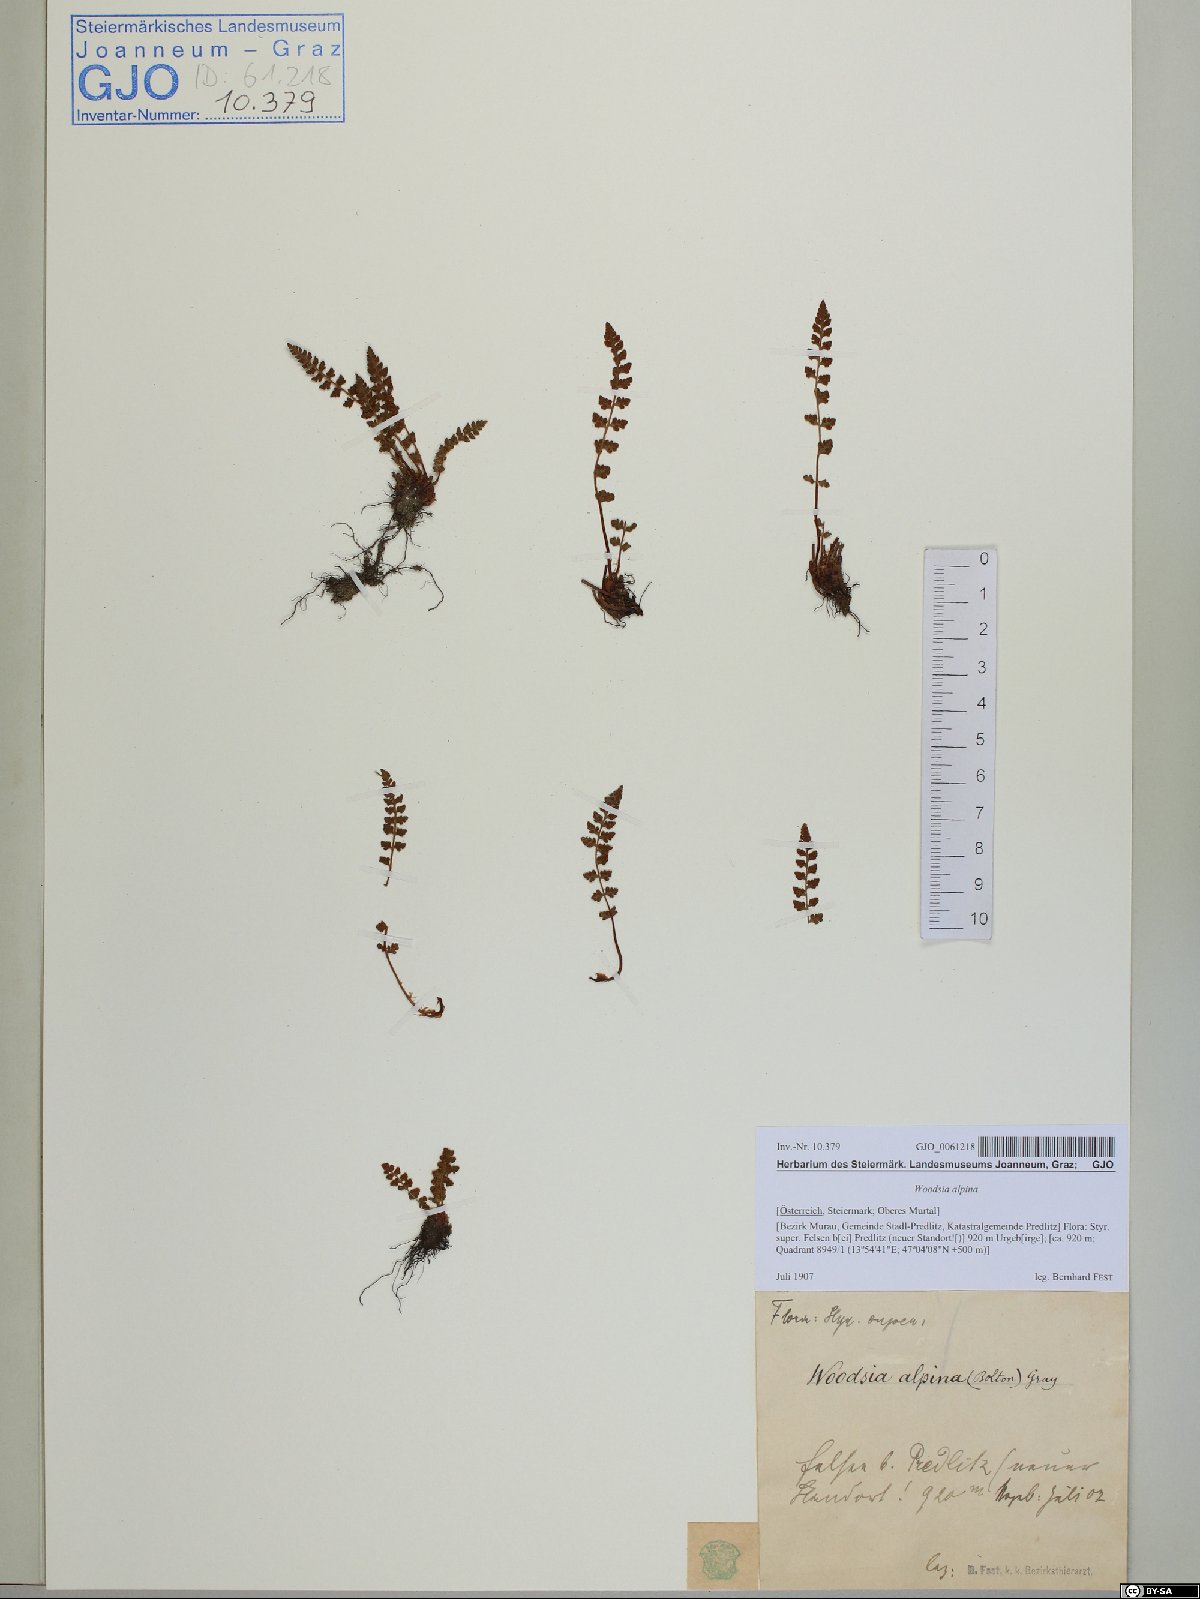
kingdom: Plantae
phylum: Tracheophyta
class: Polypodiopsida
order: Polypodiales
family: Woodsiaceae
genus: Woodsia
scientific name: Woodsia alpina
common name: Alpine woodsia
